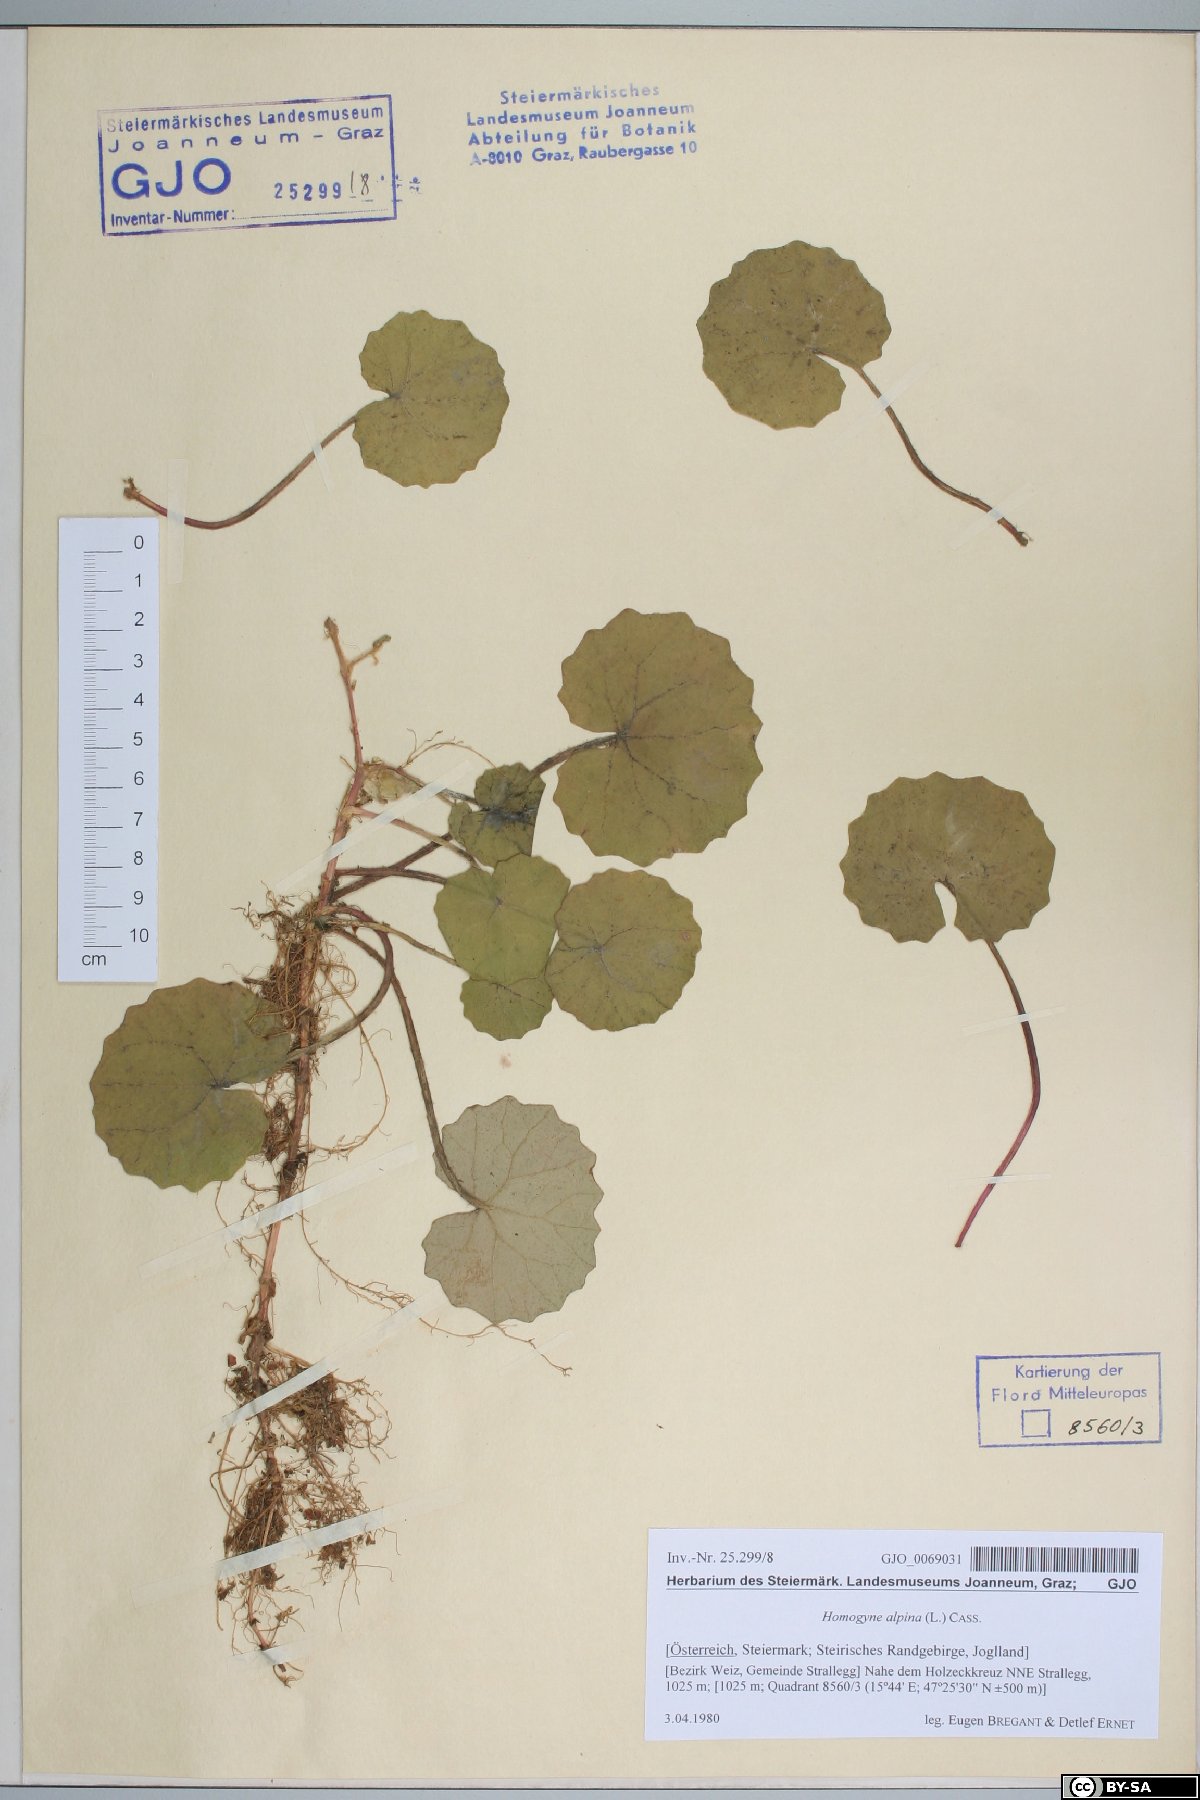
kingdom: Plantae
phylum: Tracheophyta
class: Magnoliopsida
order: Asterales
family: Asteraceae
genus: Homogyne
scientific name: Homogyne alpina
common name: Purple colt's-foot
